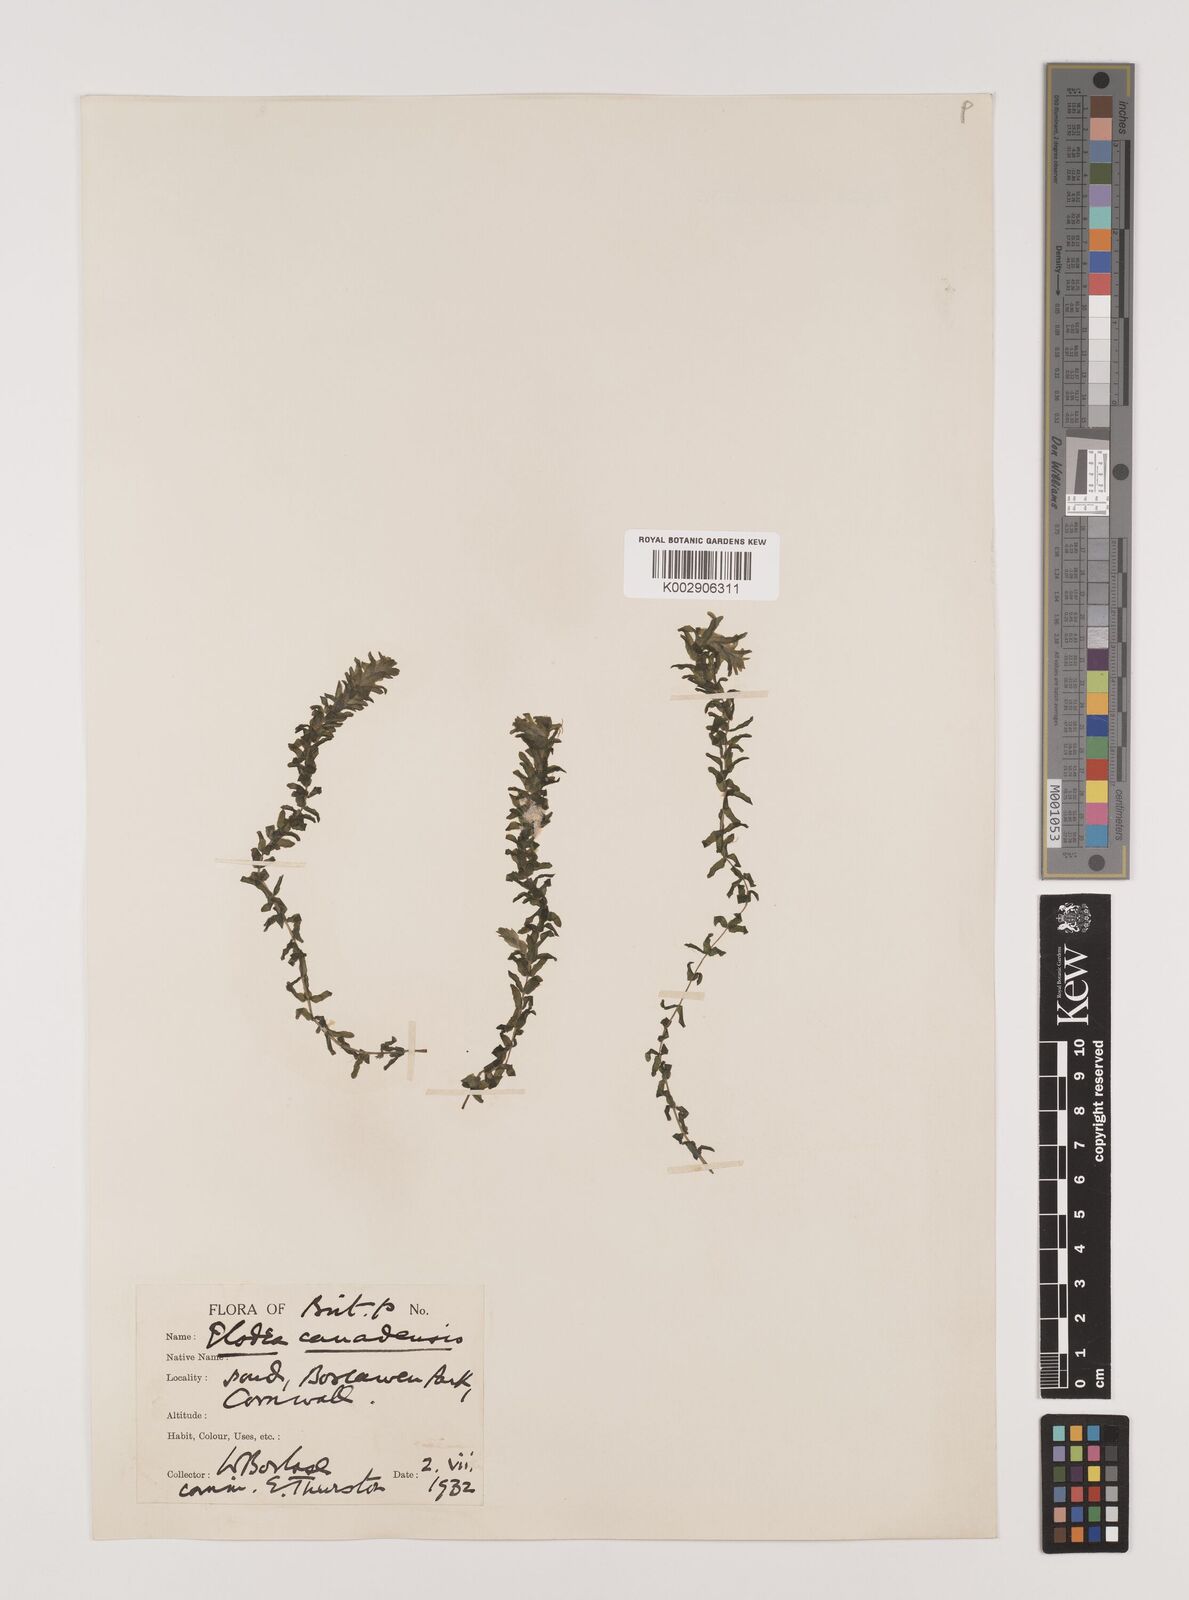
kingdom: Plantae
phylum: Tracheophyta
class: Liliopsida
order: Alismatales
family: Hydrocharitaceae
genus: Elodea
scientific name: Elodea canadensis
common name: Canadian waterweed
